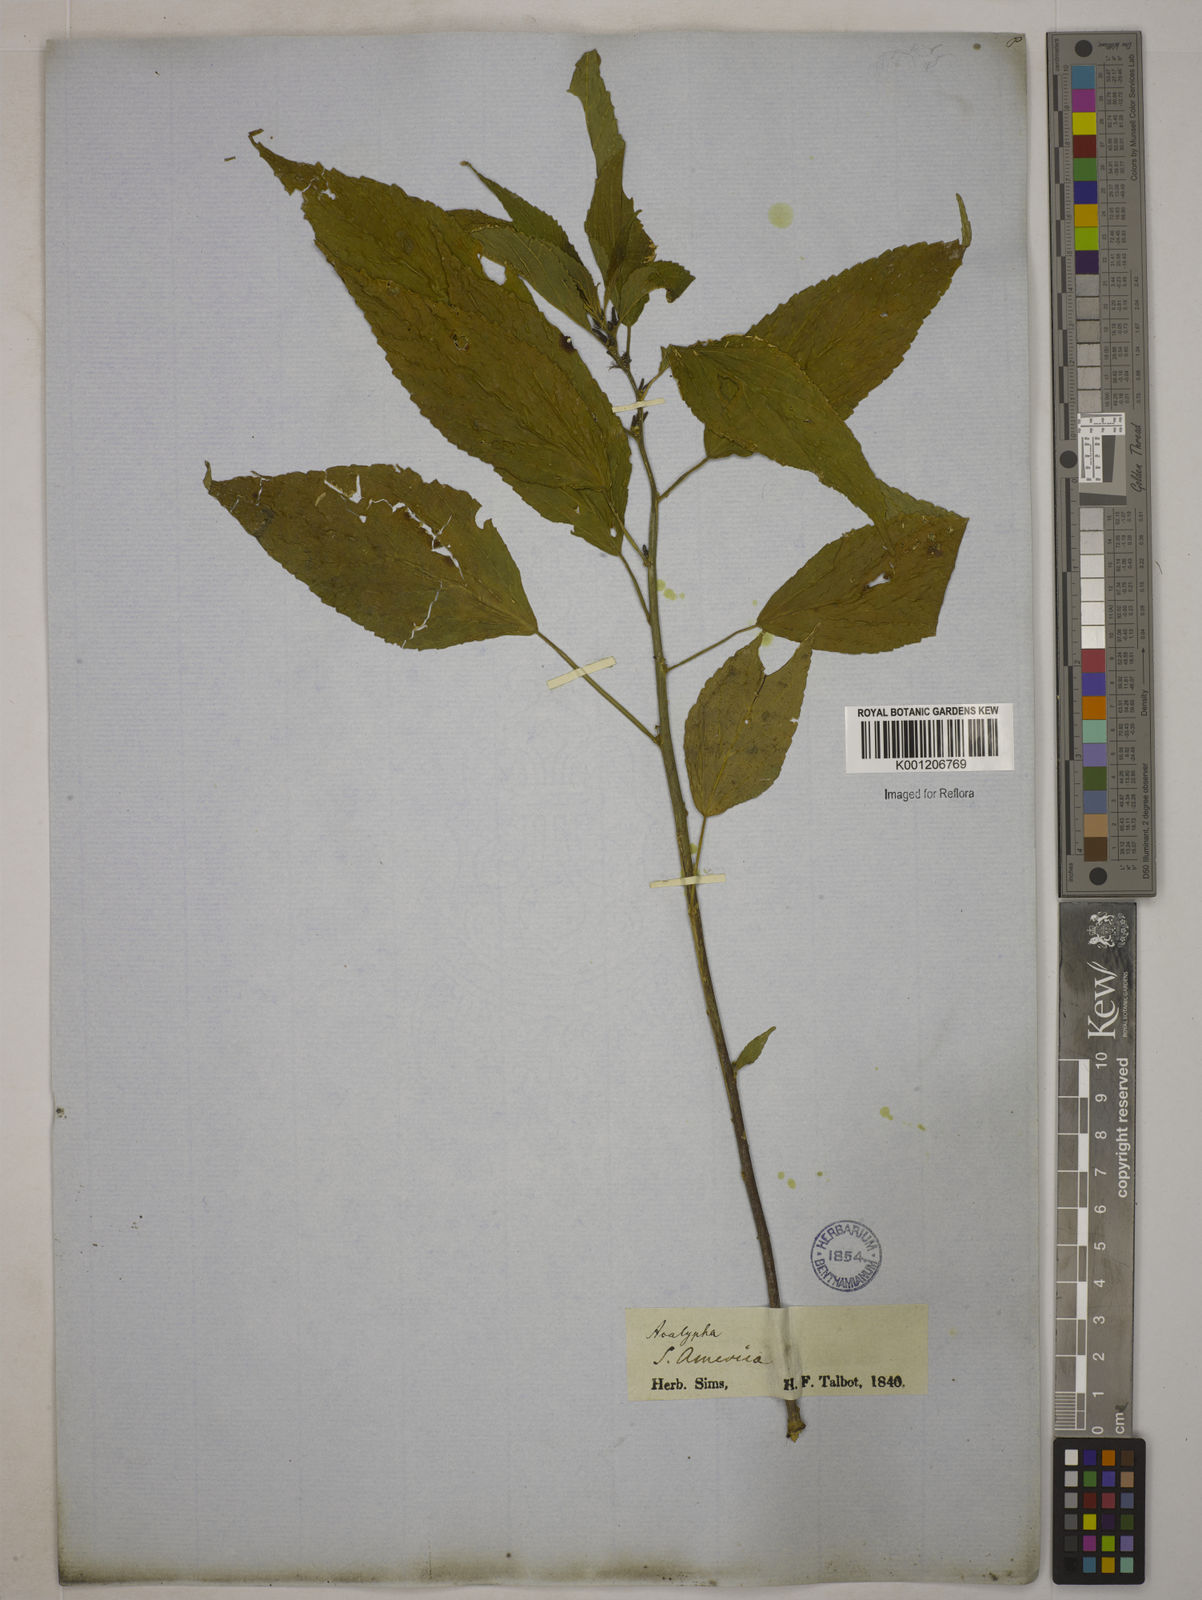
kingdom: Plantae
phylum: Tracheophyta
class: Magnoliopsida
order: Malpighiales
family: Euphorbiaceae
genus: Acalypha
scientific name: Acalypha
